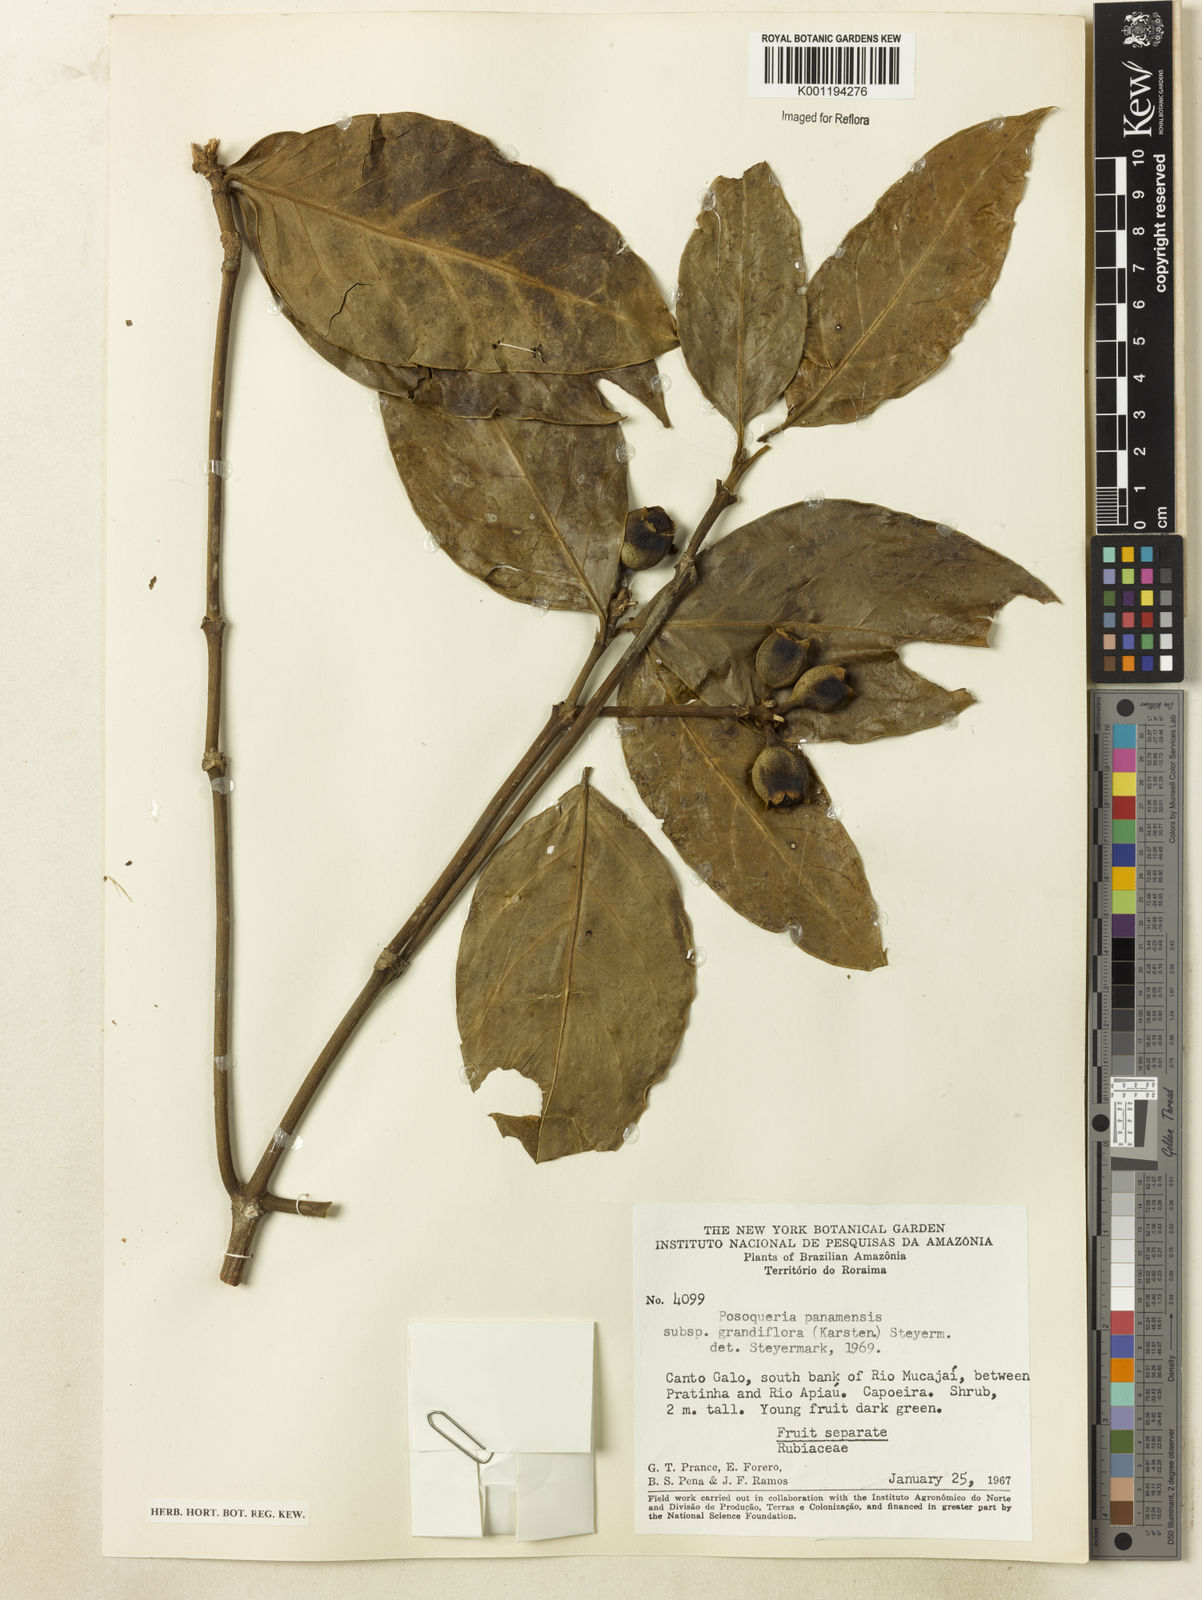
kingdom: Plantae
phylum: Tracheophyta
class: Magnoliopsida
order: Gentianales
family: Rubiaceae
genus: Posoqueria
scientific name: Posoqueria latifolia
